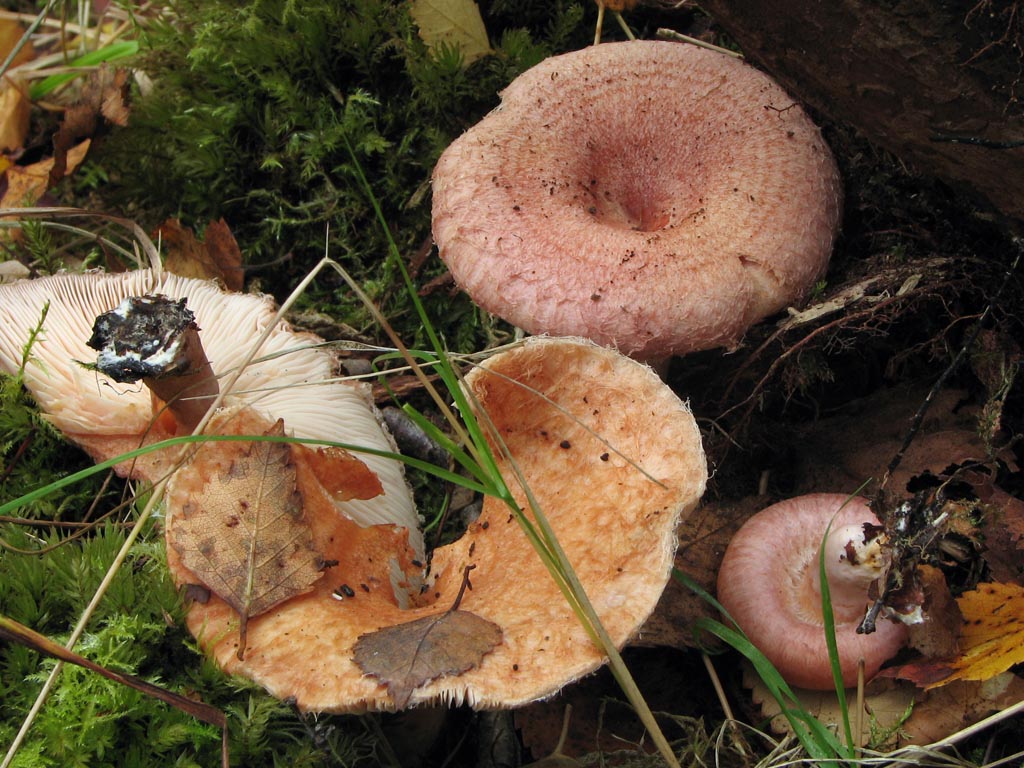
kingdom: Fungi
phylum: Basidiomycota
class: Agaricomycetes
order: Russulales
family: Russulaceae
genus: Lactarius
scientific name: Lactarius torminosus
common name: skægget mælkehat
